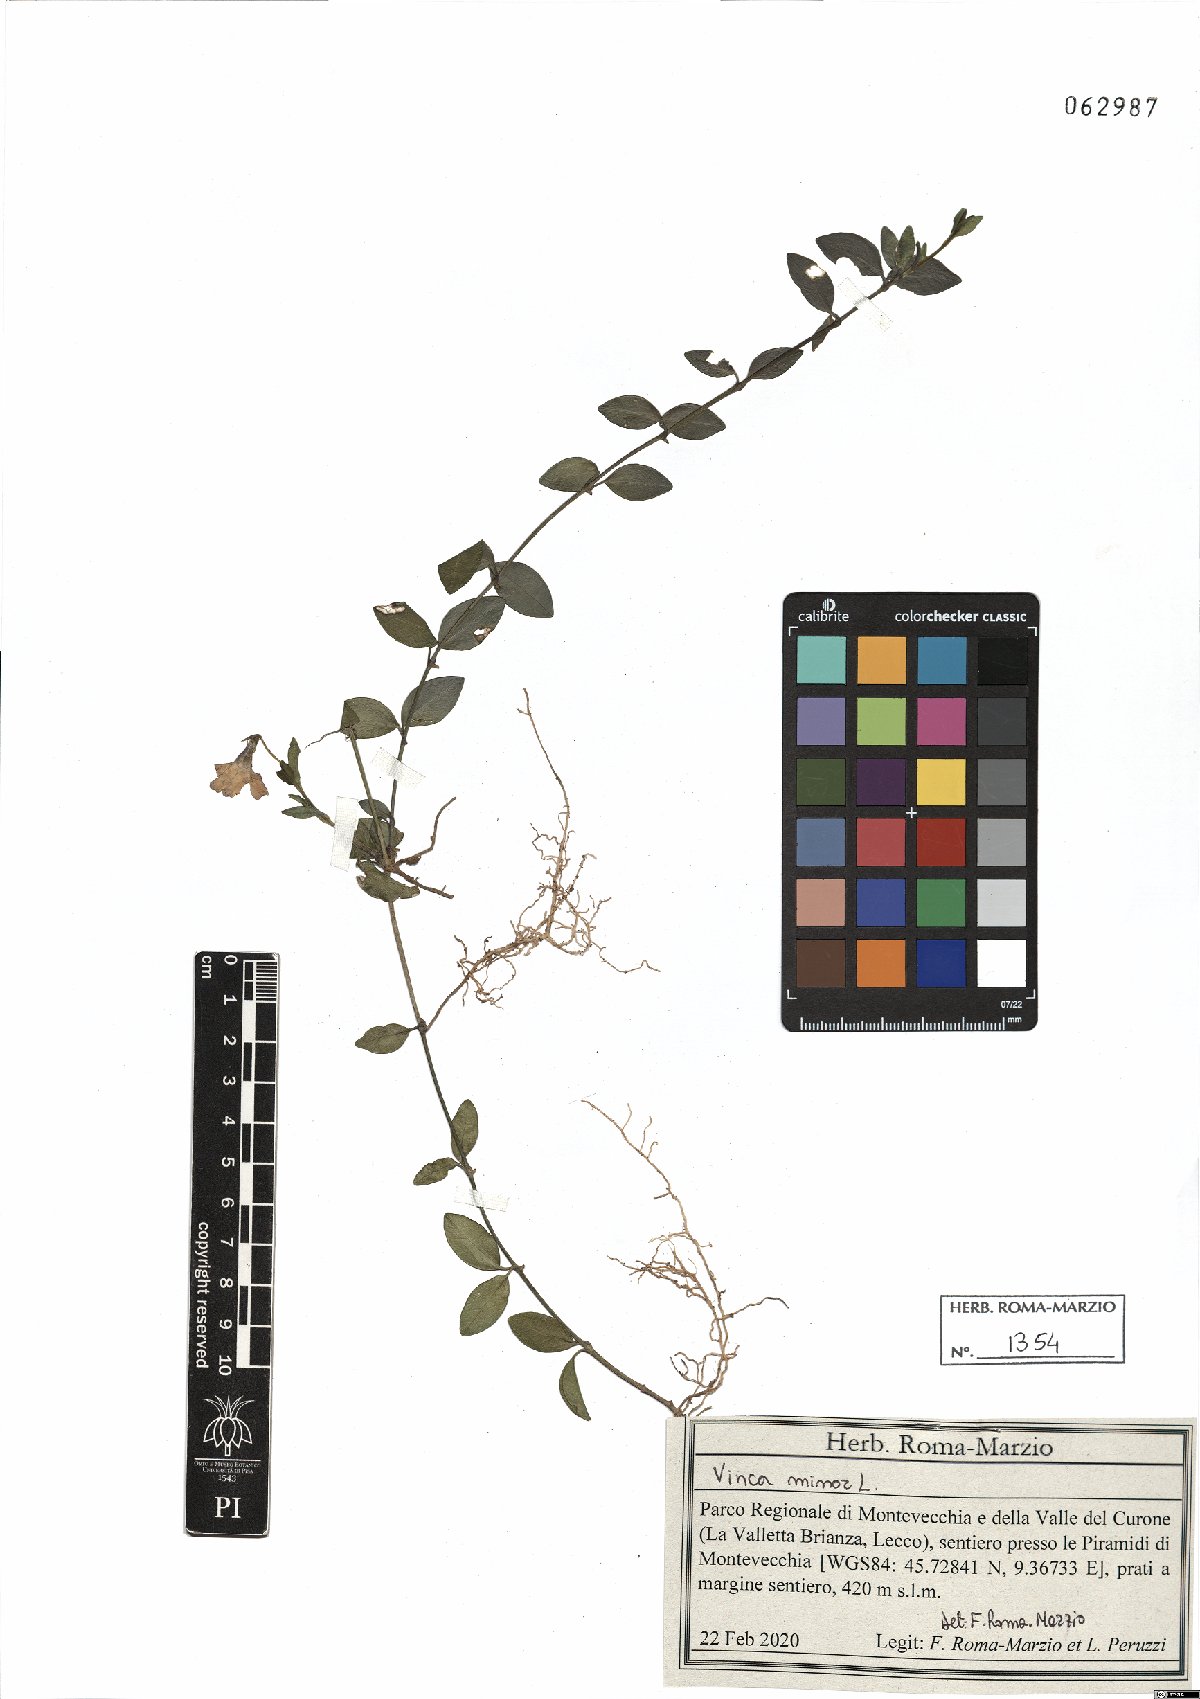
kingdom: Plantae
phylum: Tracheophyta
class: Magnoliopsida
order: Gentianales
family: Apocynaceae
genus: Vinca
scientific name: Vinca minor
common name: Lesser periwinkle
